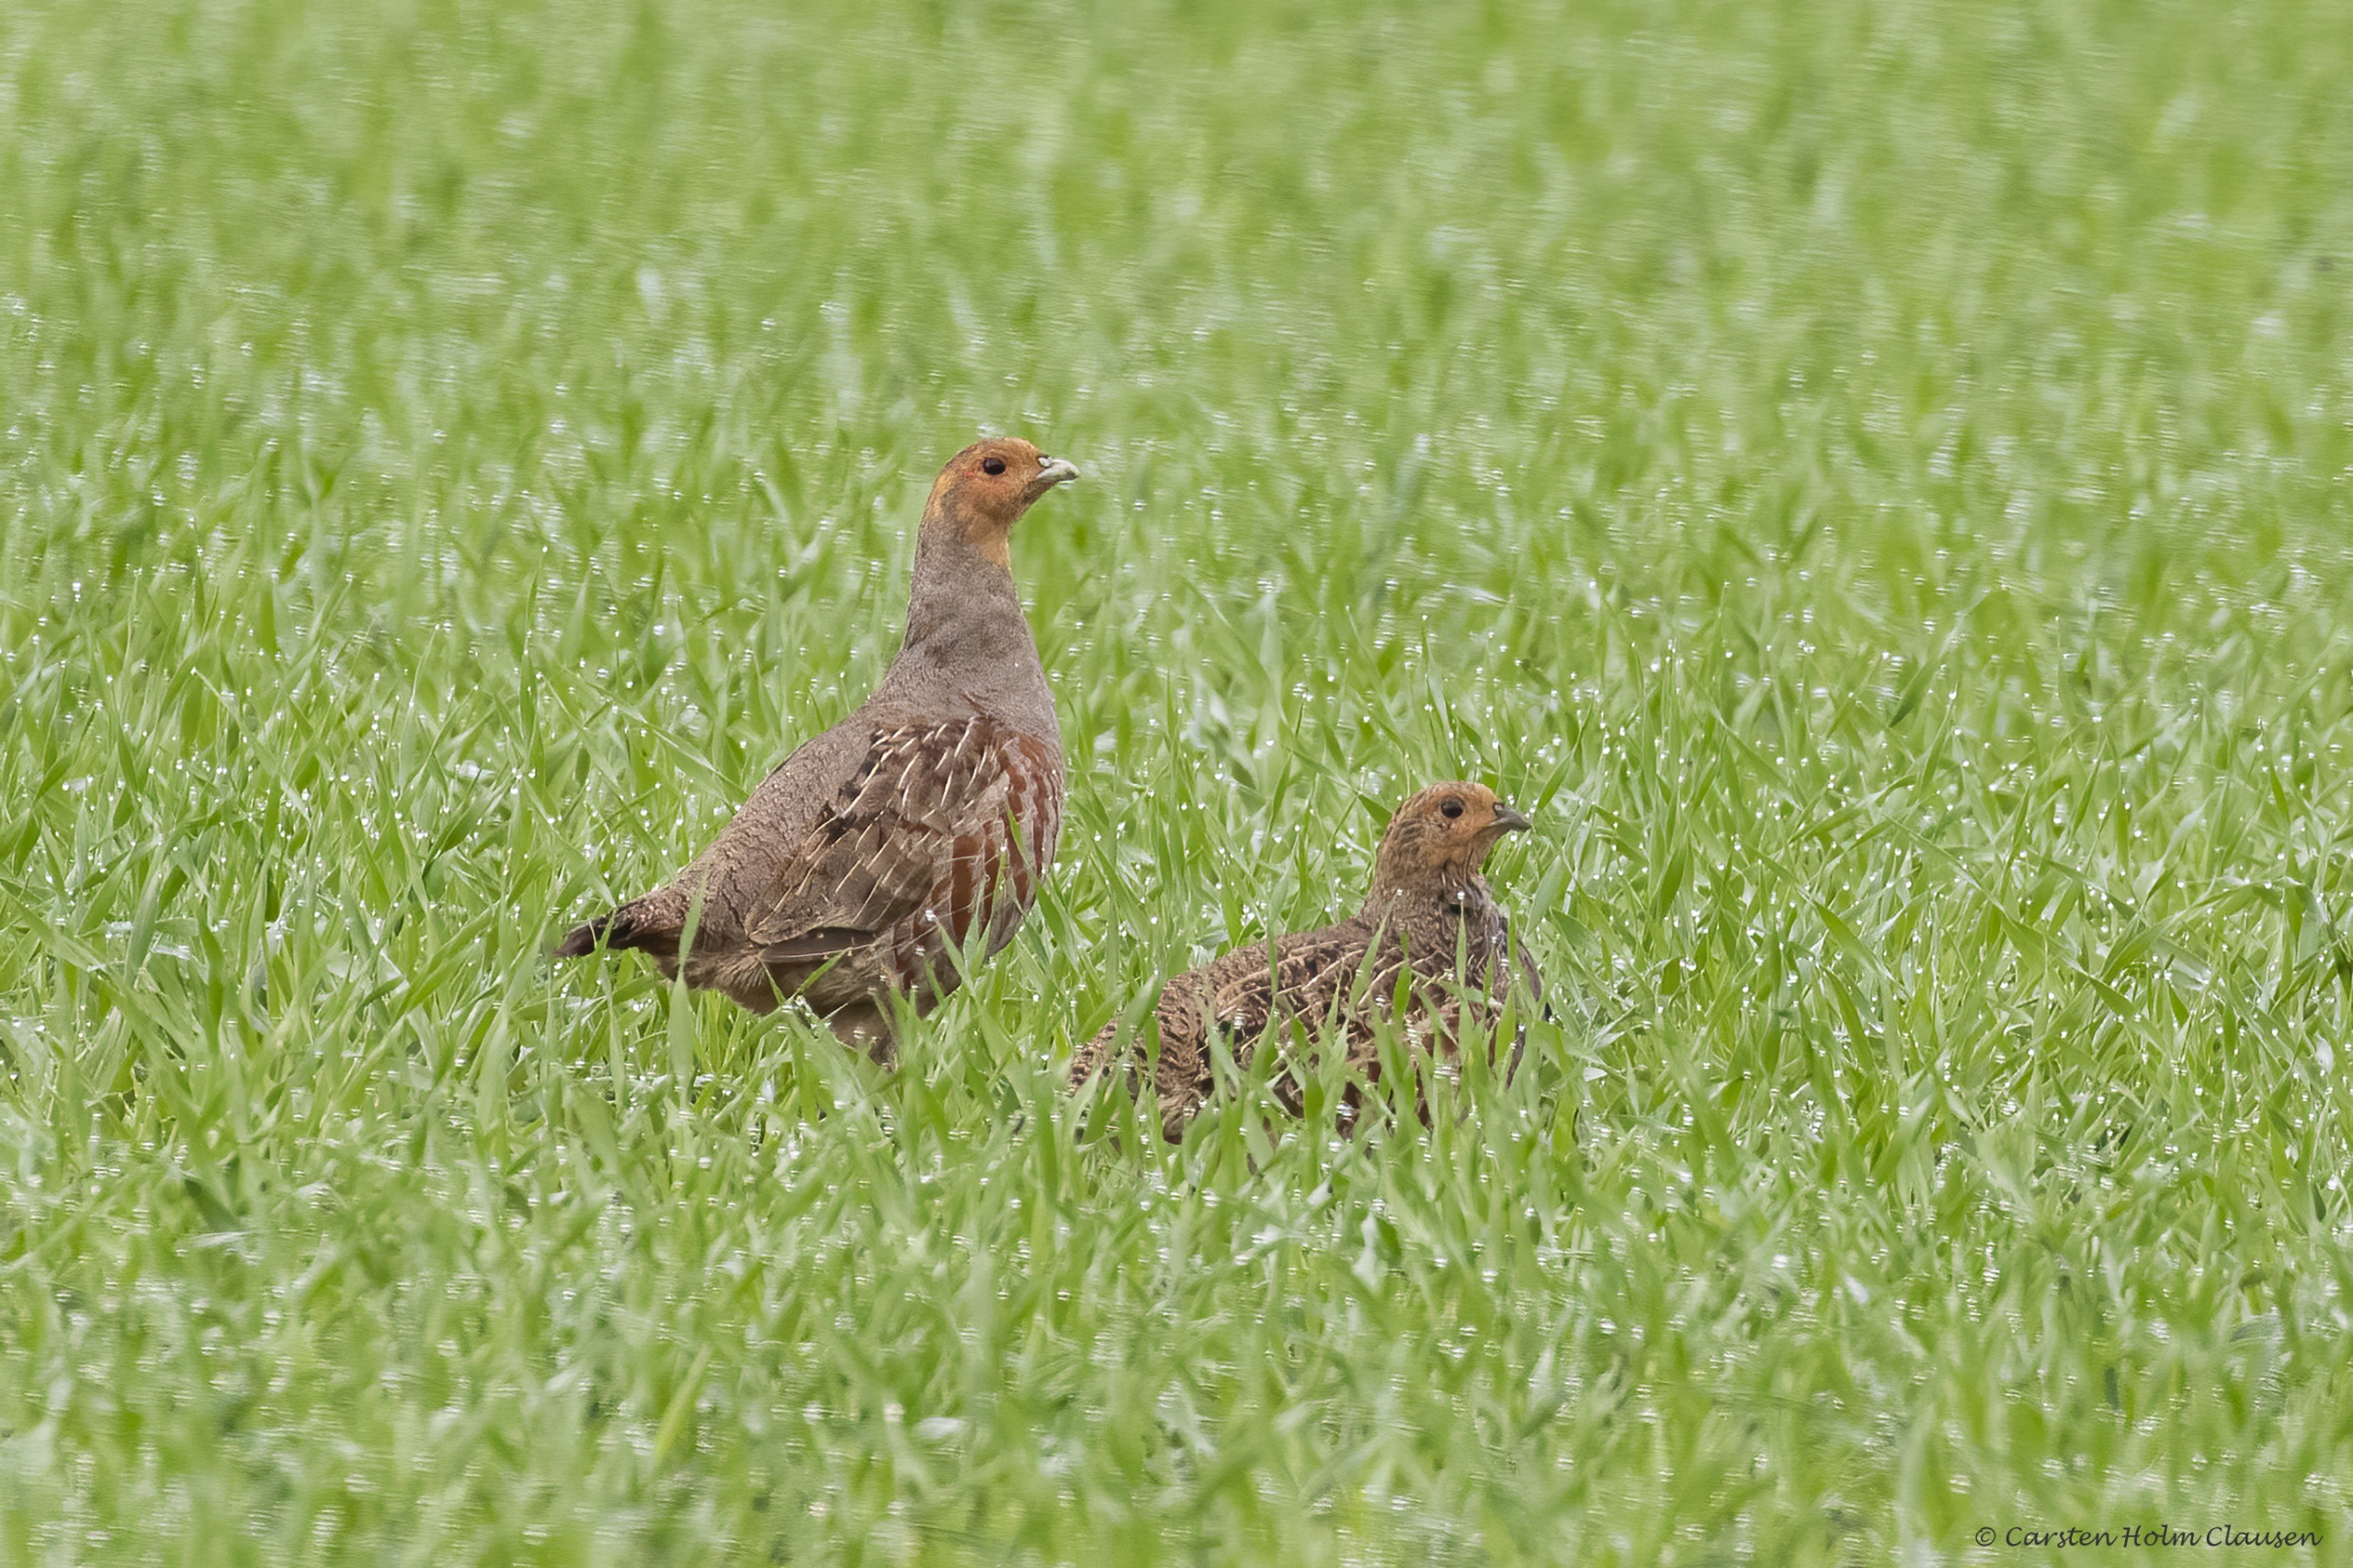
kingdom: Animalia
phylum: Chordata
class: Aves
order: Galliformes
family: Phasianidae
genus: Perdix
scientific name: Perdix perdix
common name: Agerhøne
